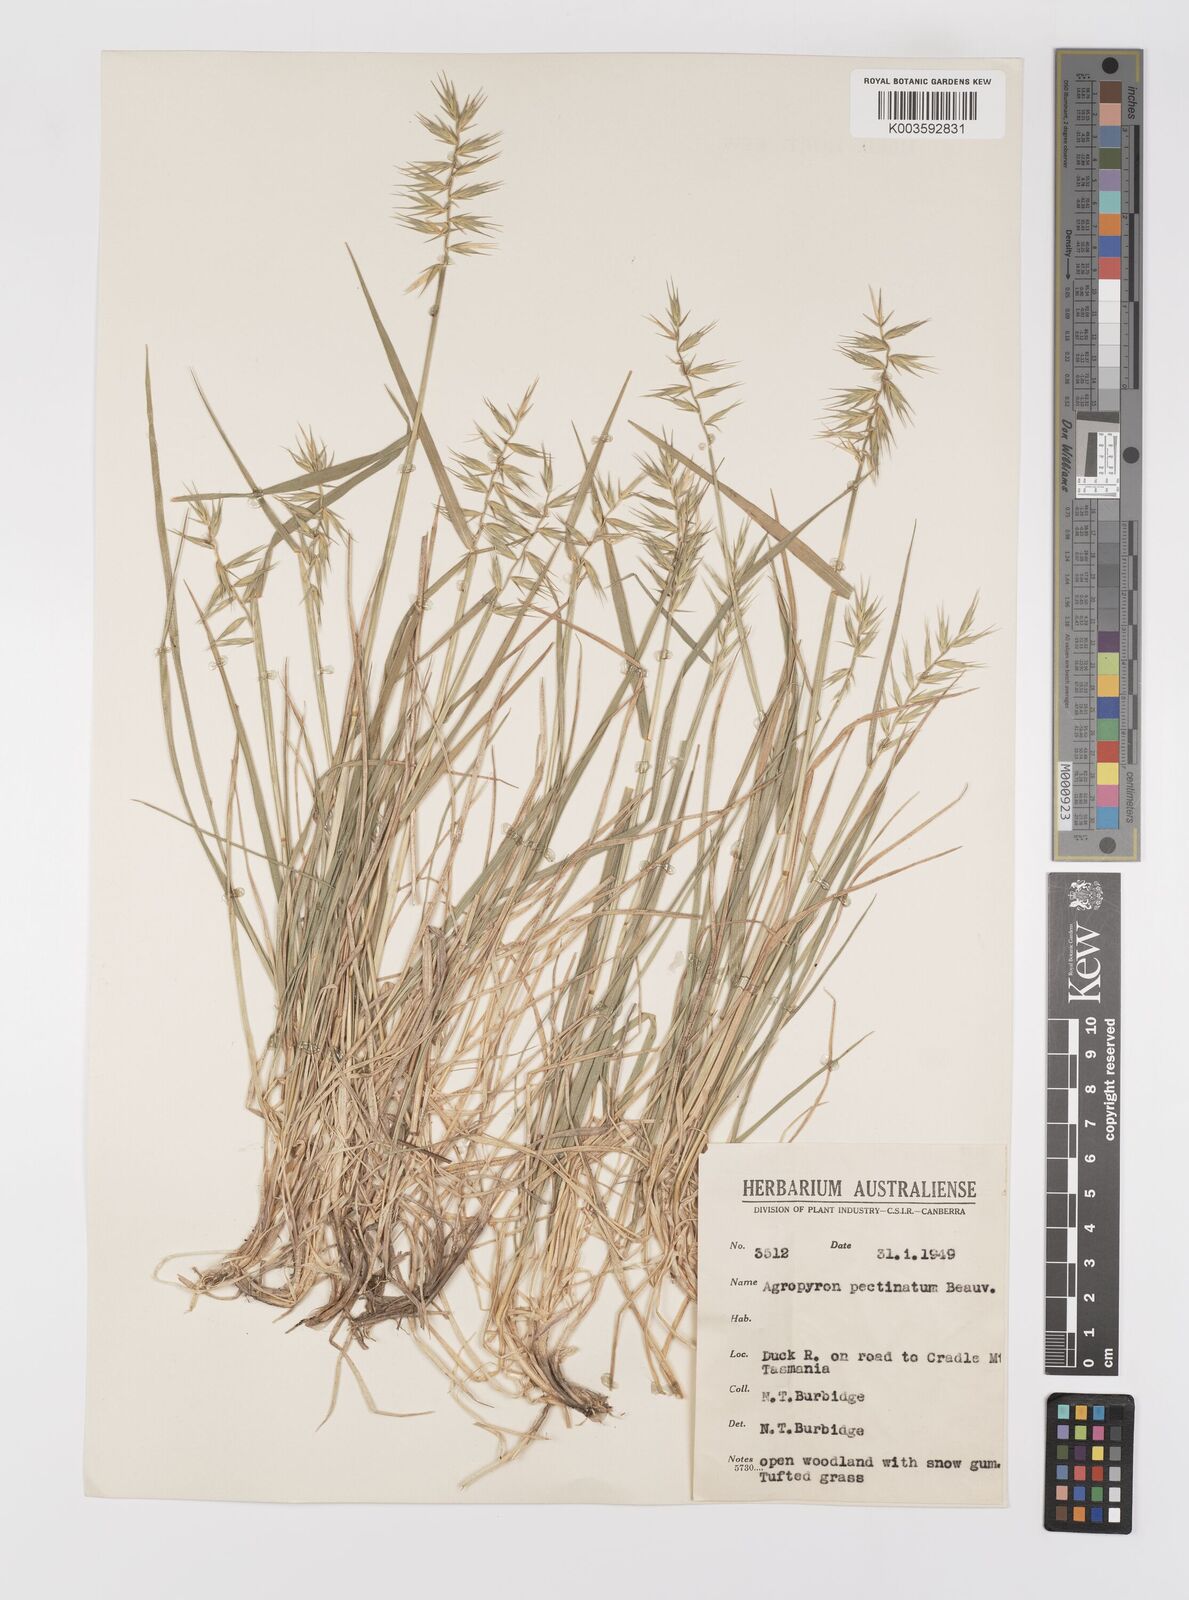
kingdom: Plantae
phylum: Tracheophyta
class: Liliopsida
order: Poales
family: Poaceae
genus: Australopyrum
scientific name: Australopyrum pectinatum
